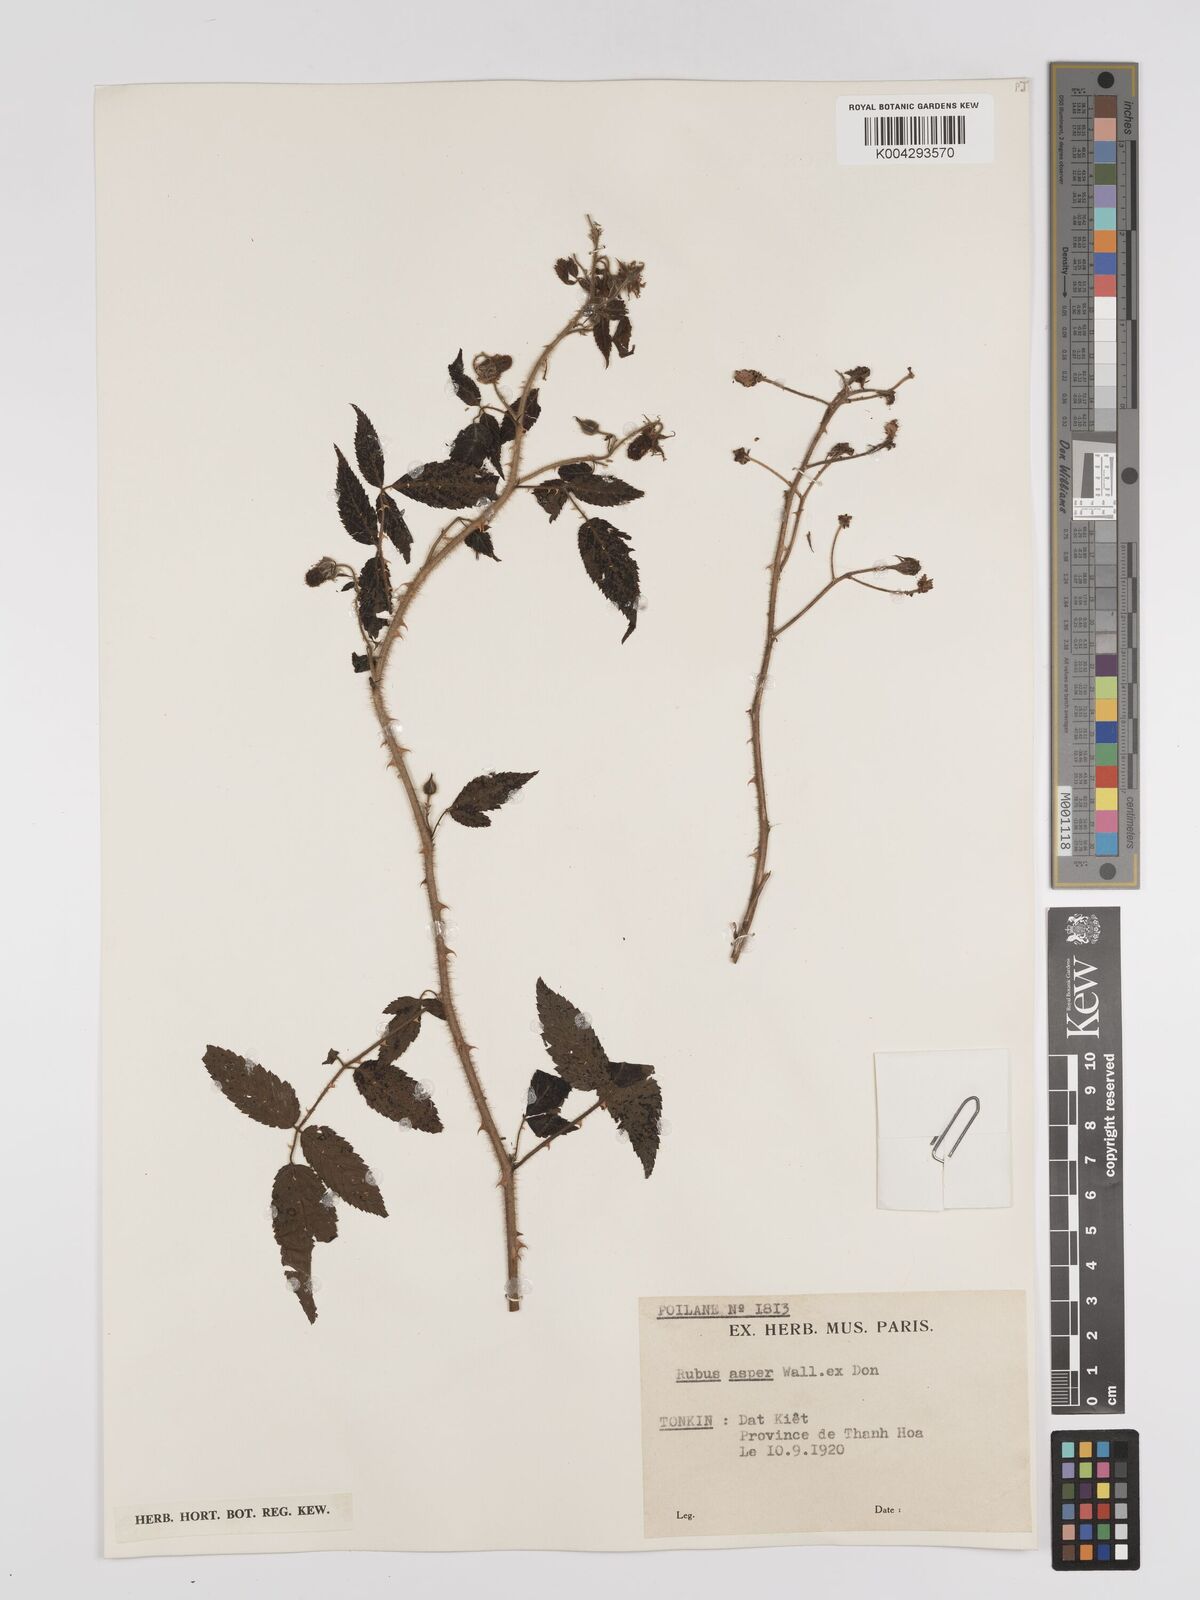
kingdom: Plantae
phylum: Tracheophyta
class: Magnoliopsida
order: Rosales
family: Rosaceae
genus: Rubus
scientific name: Rubus sumatranus
